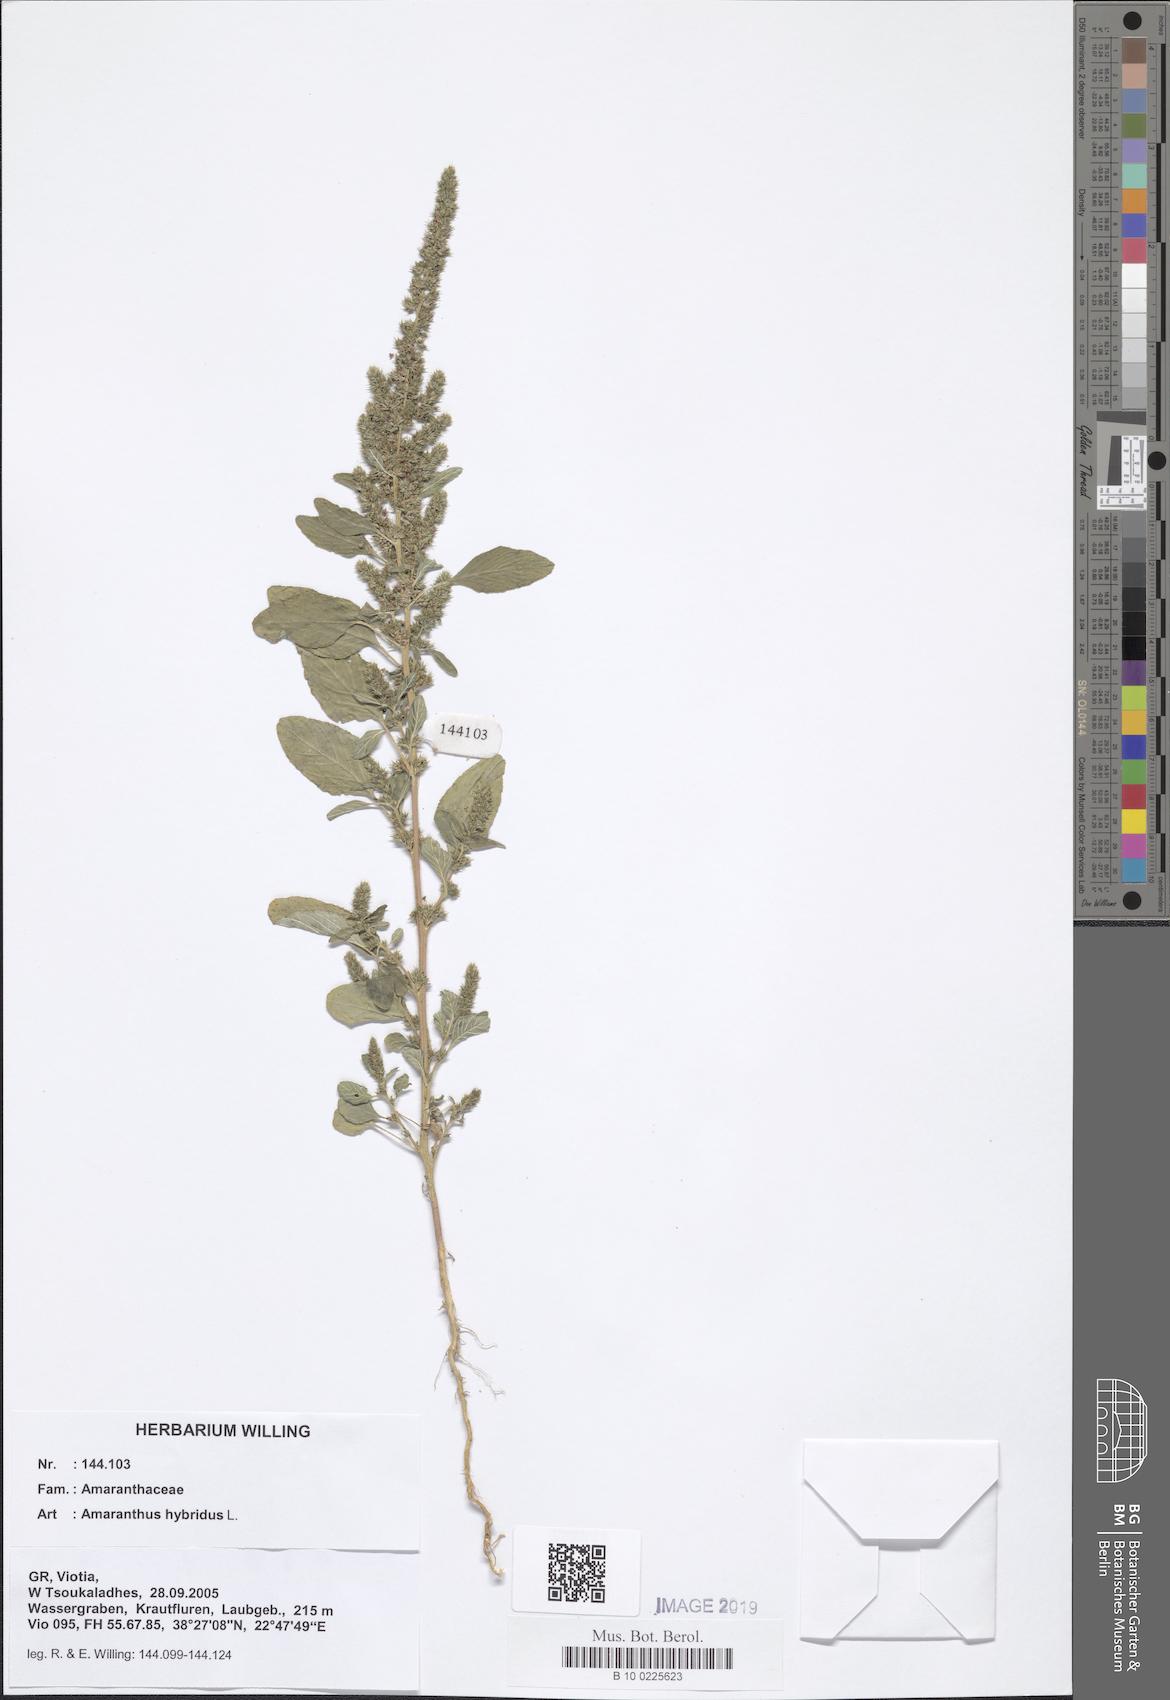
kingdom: Plantae
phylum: Tracheophyta
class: Magnoliopsida
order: Caryophyllales
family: Amaranthaceae
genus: Amaranthus
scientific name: Amaranthus hybridus
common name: Green amaranth
